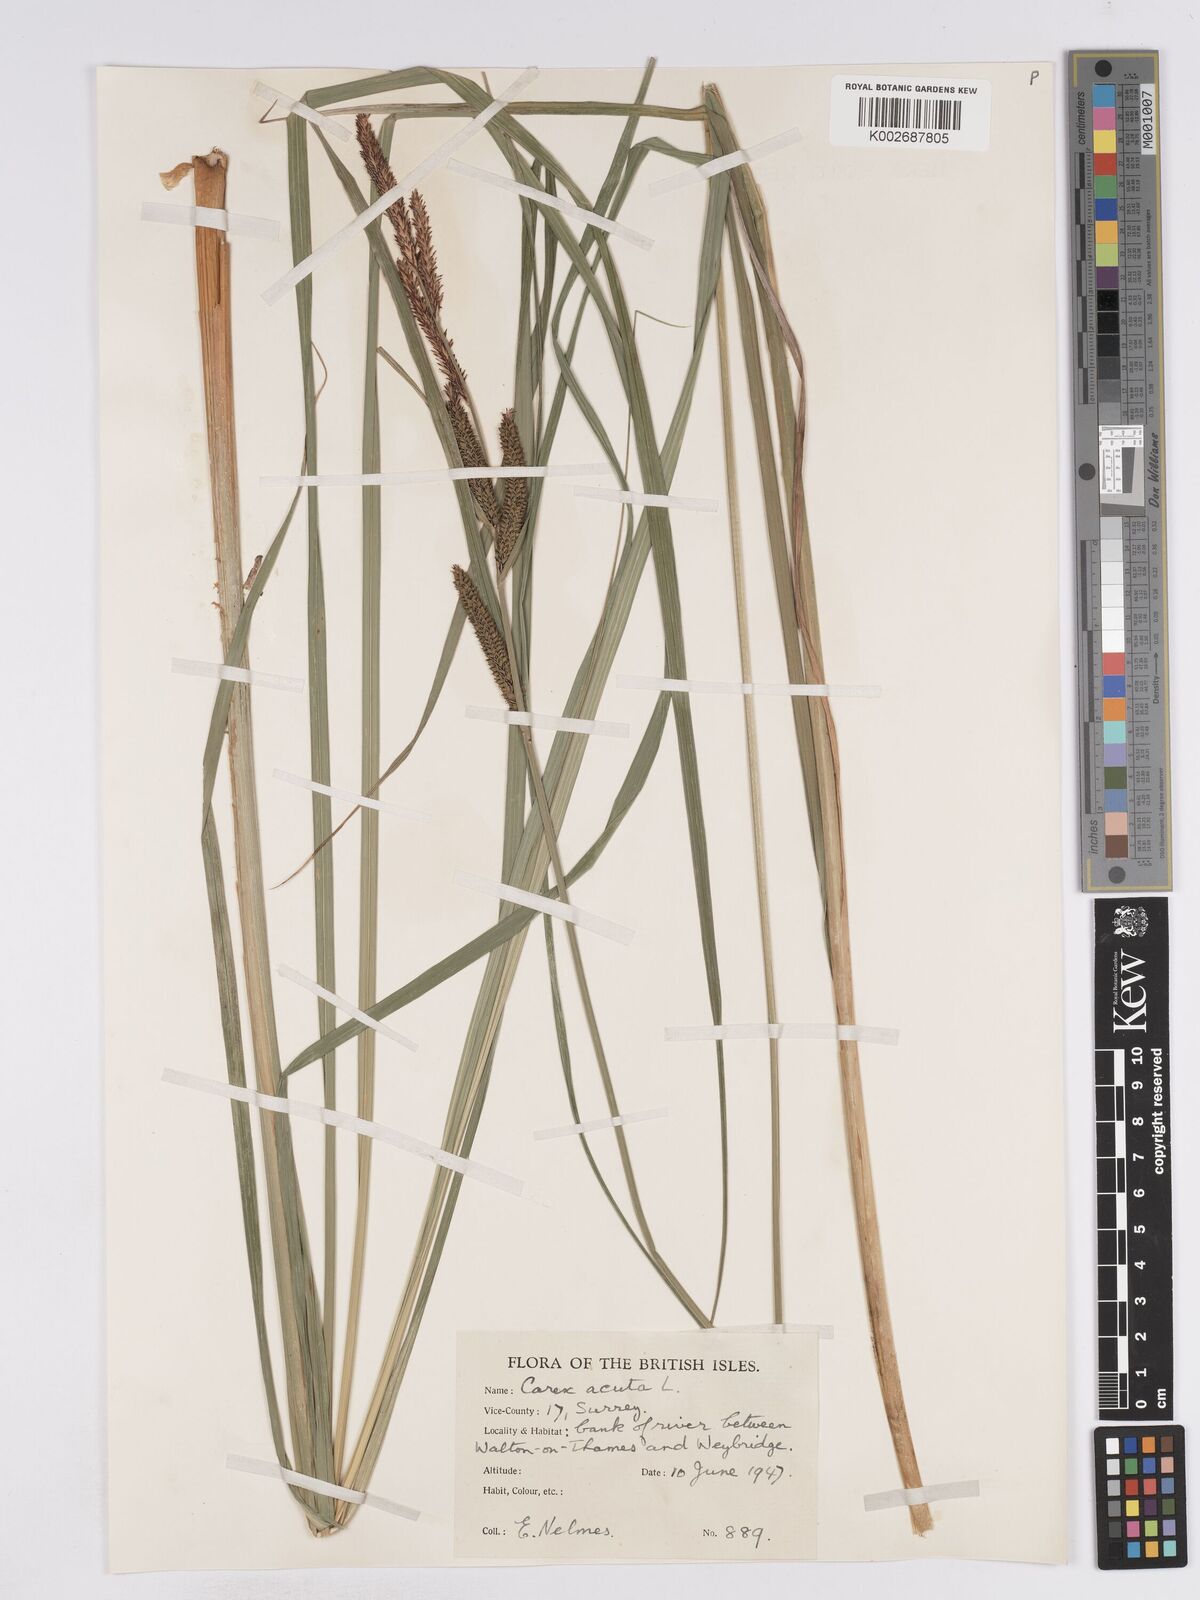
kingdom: Plantae
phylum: Tracheophyta
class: Liliopsida
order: Poales
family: Cyperaceae
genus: Carex
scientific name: Carex acuta
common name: Slender tufted-sedge
